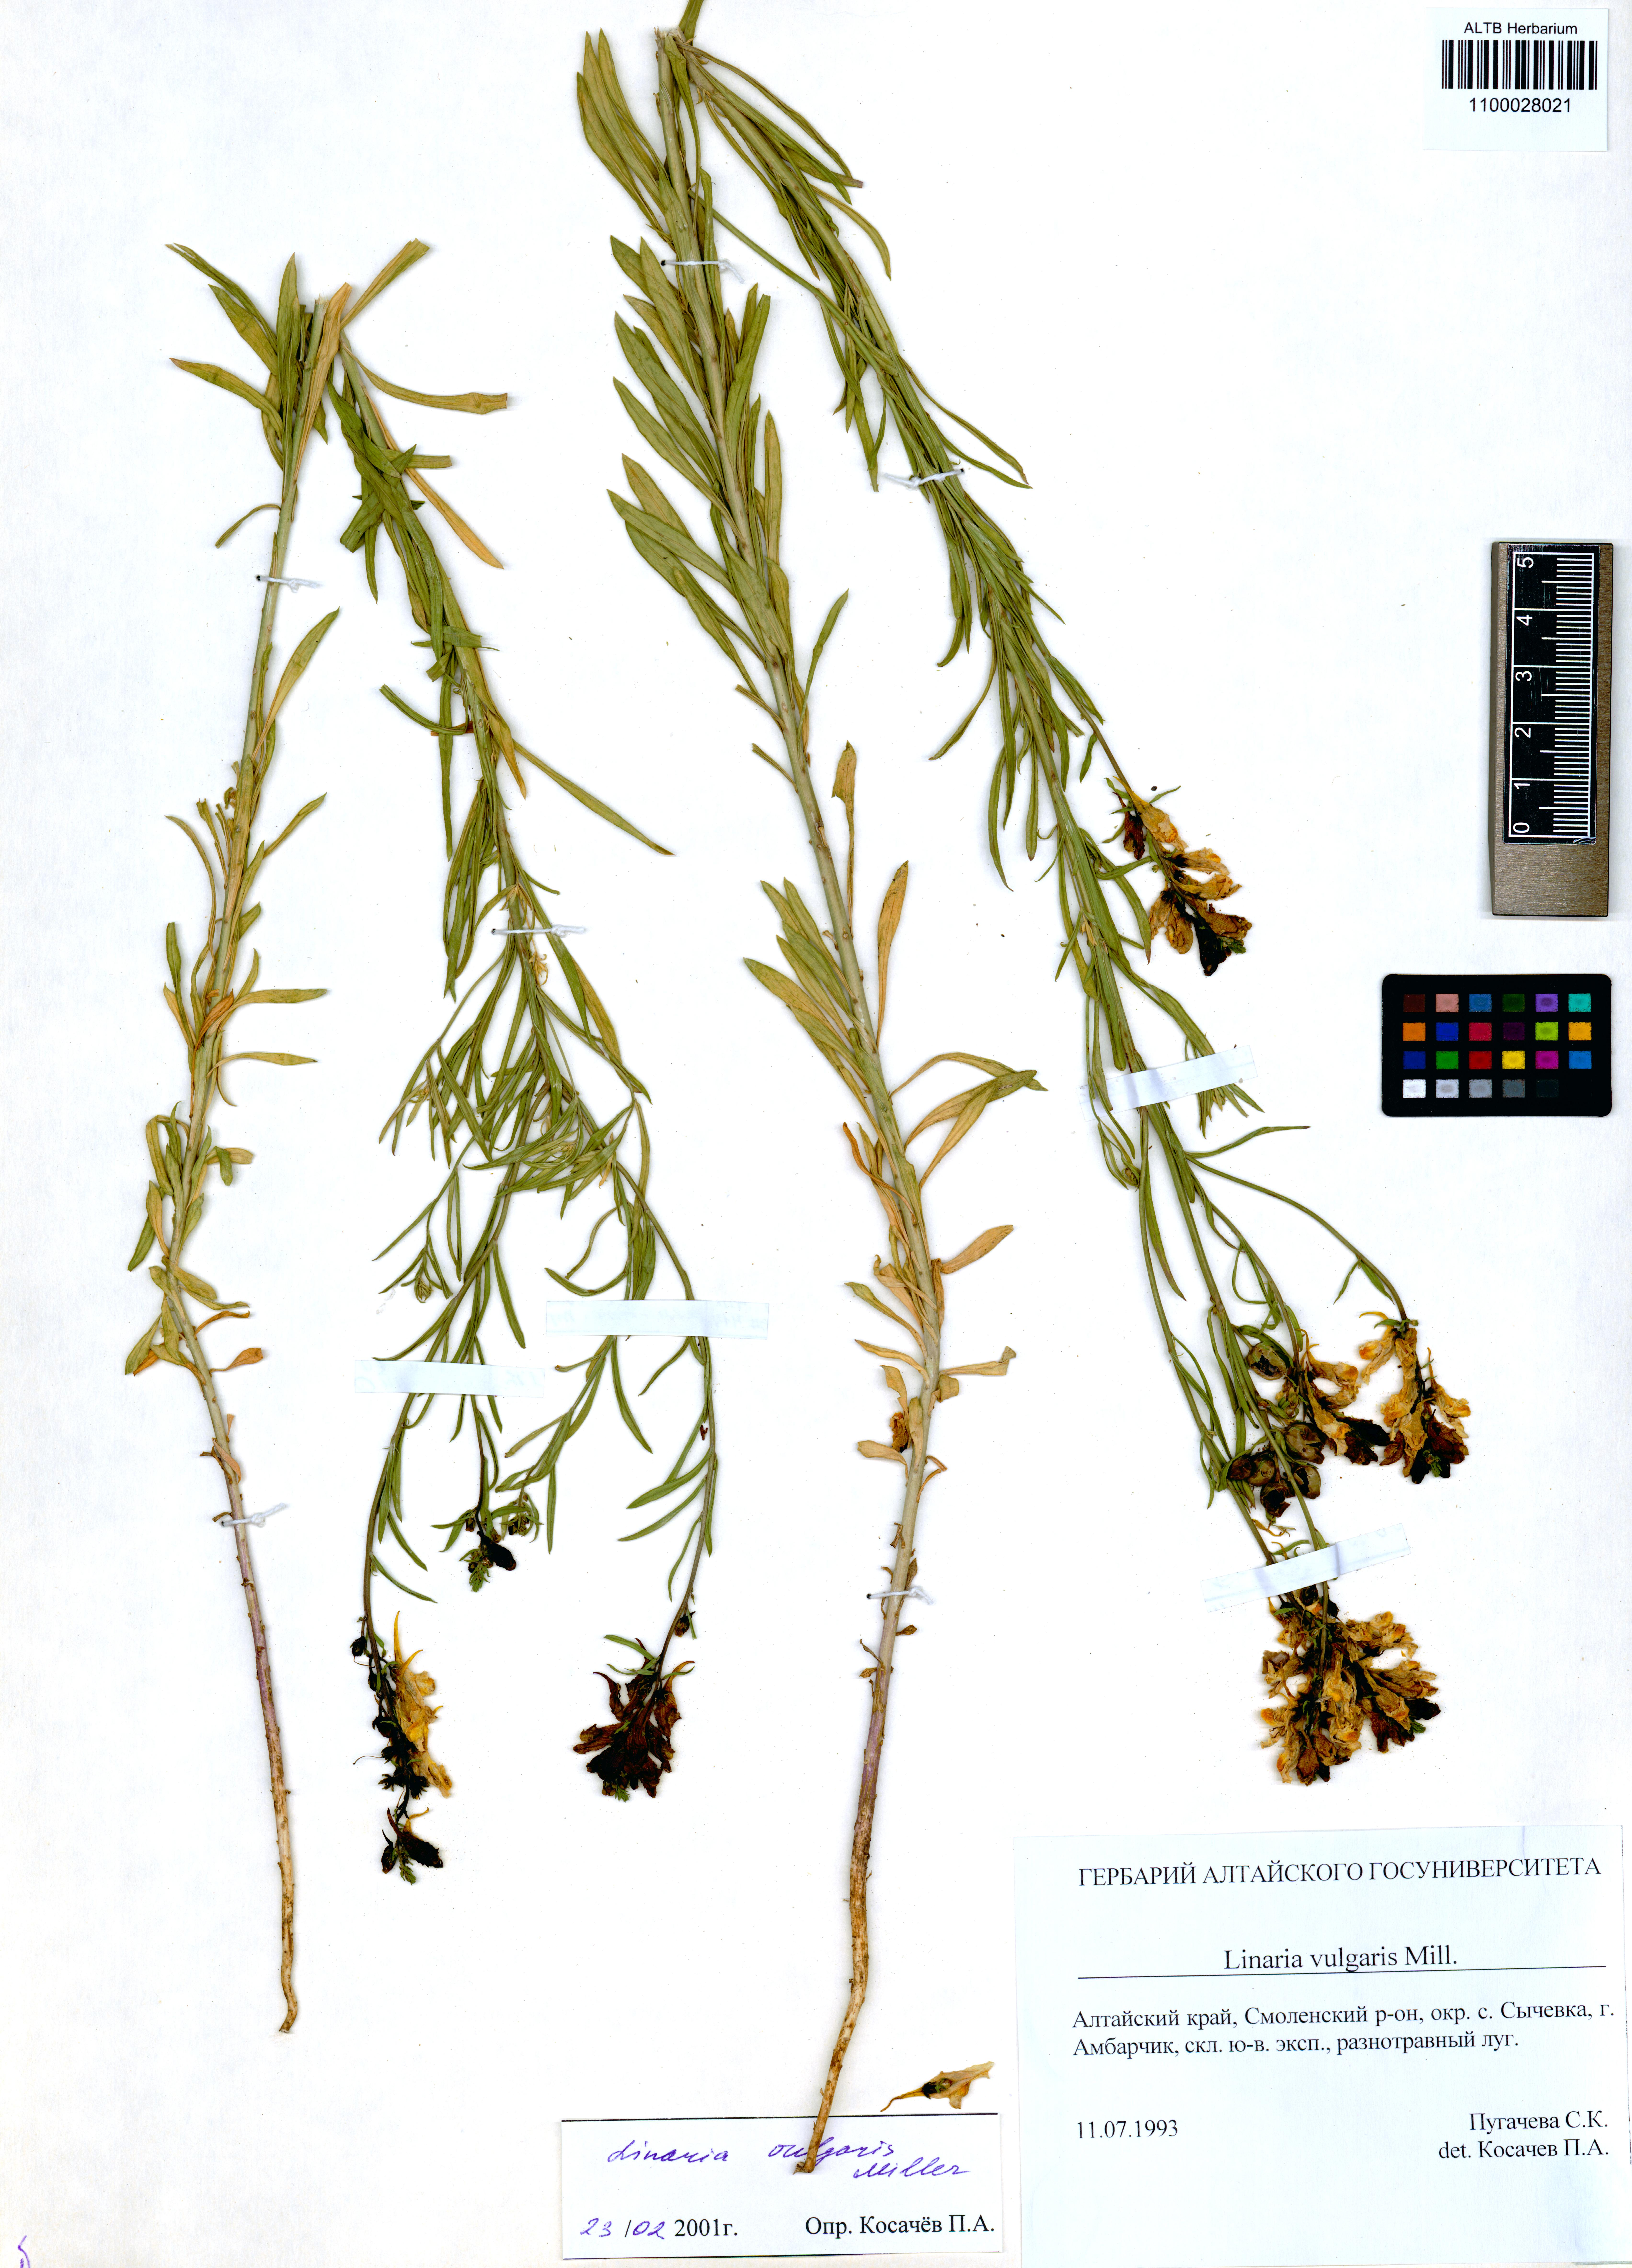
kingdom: Plantae
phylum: Tracheophyta
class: Magnoliopsida
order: Lamiales
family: Plantaginaceae
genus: Linaria
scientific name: Linaria vulgaris
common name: Butter and eggs
